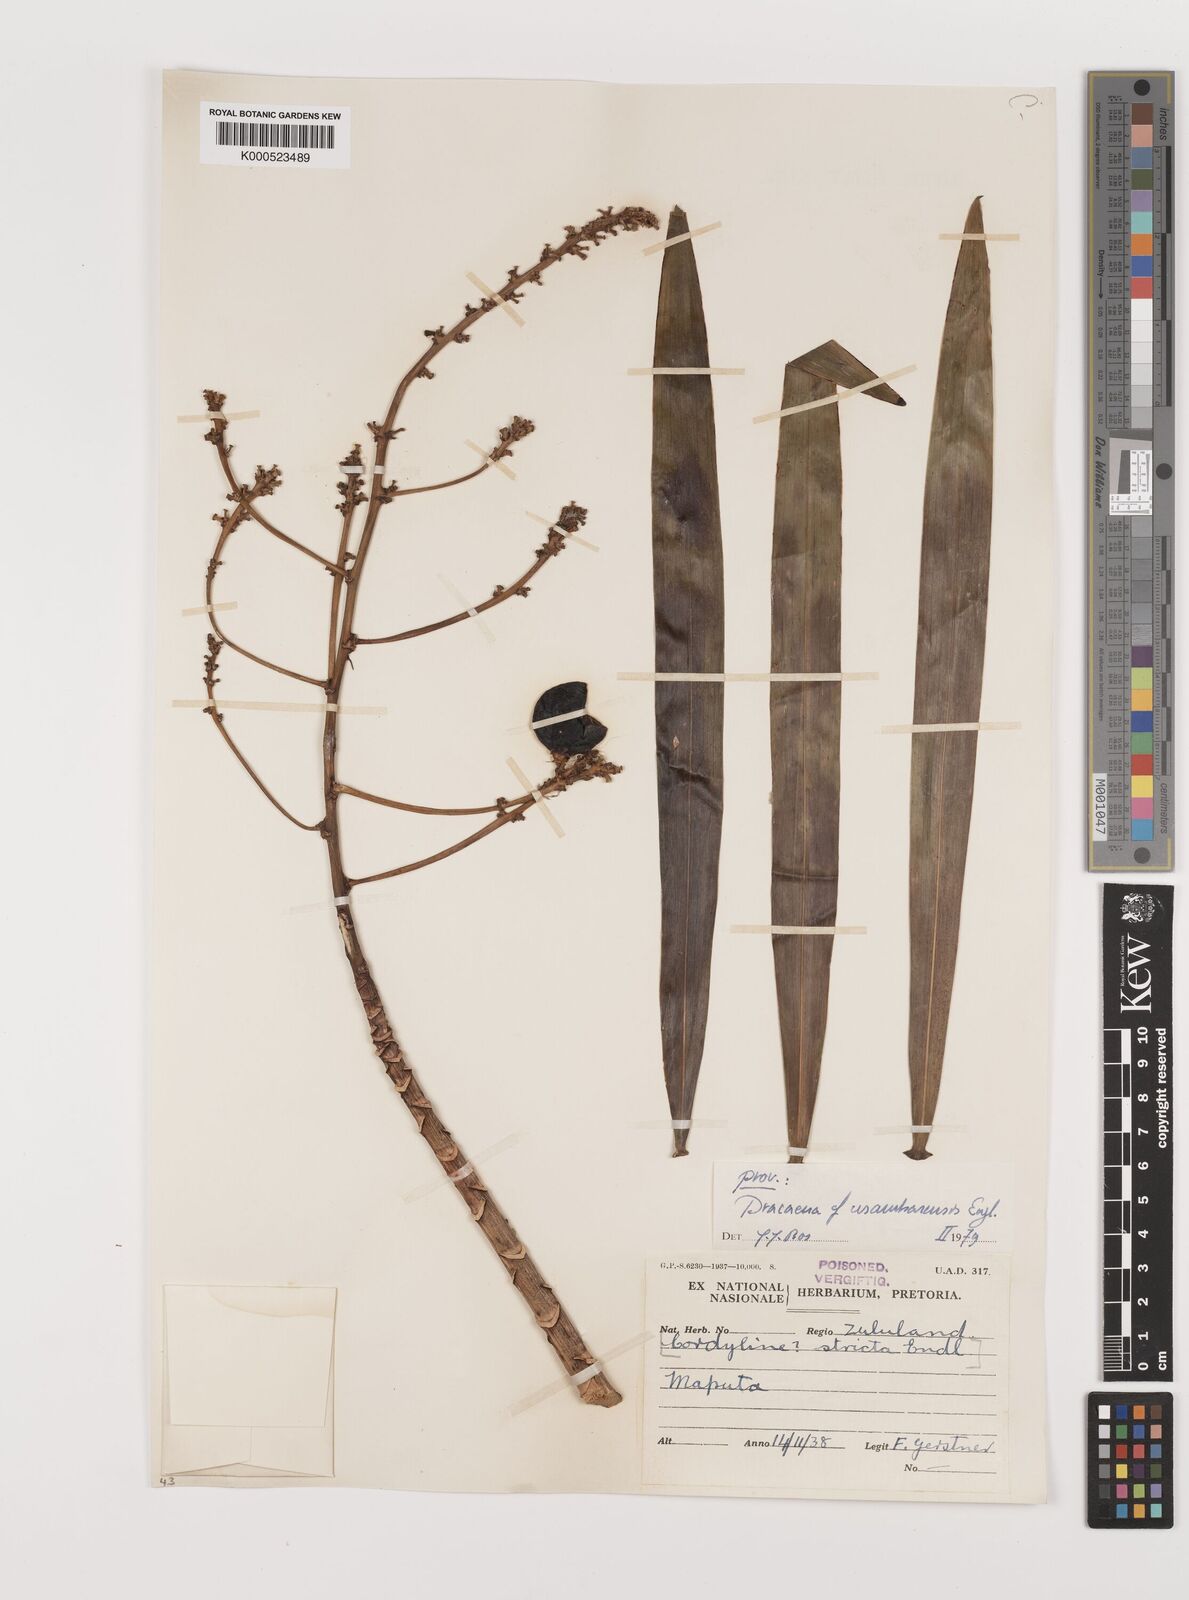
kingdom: Plantae
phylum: Tracheophyta
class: Liliopsida
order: Asparagales
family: Asparagaceae
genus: Dracaena
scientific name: Dracaena usambarensis
